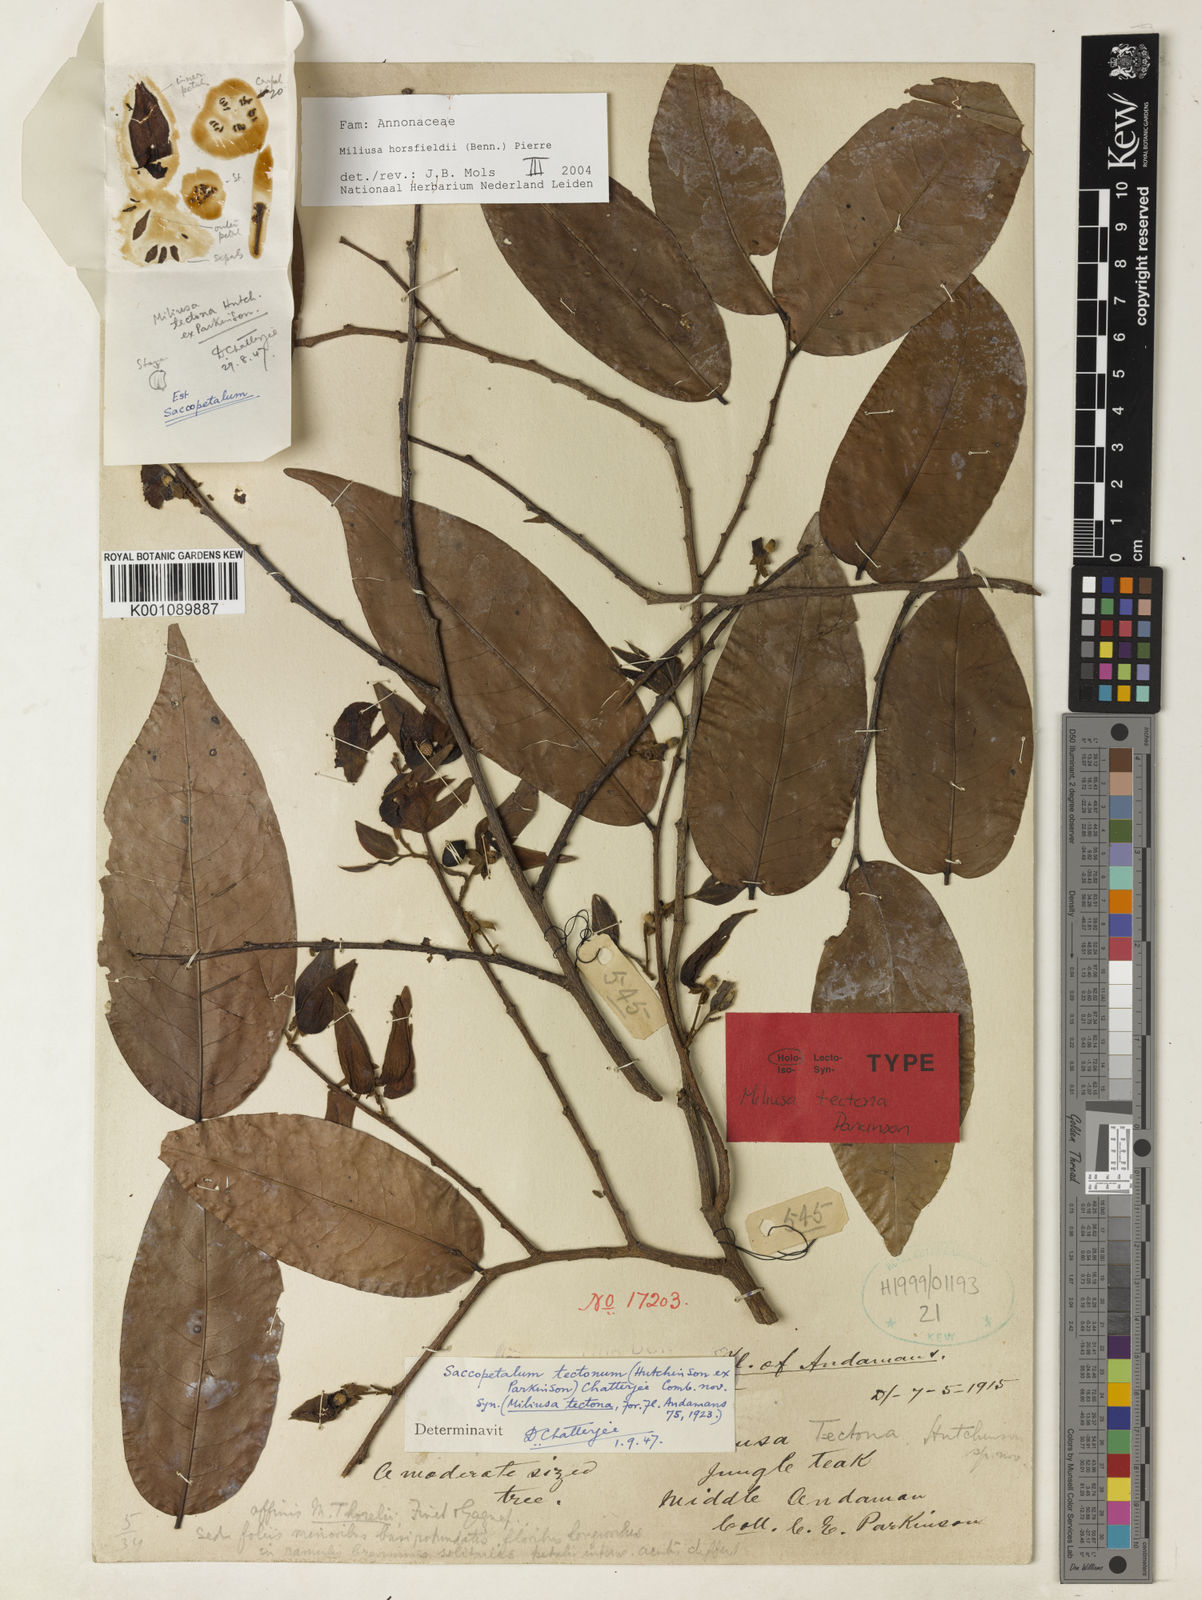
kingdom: Plantae
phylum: Tracheophyta
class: Magnoliopsida
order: Magnoliales
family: Annonaceae
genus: Miliusa
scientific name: Miliusa horsfieldii
